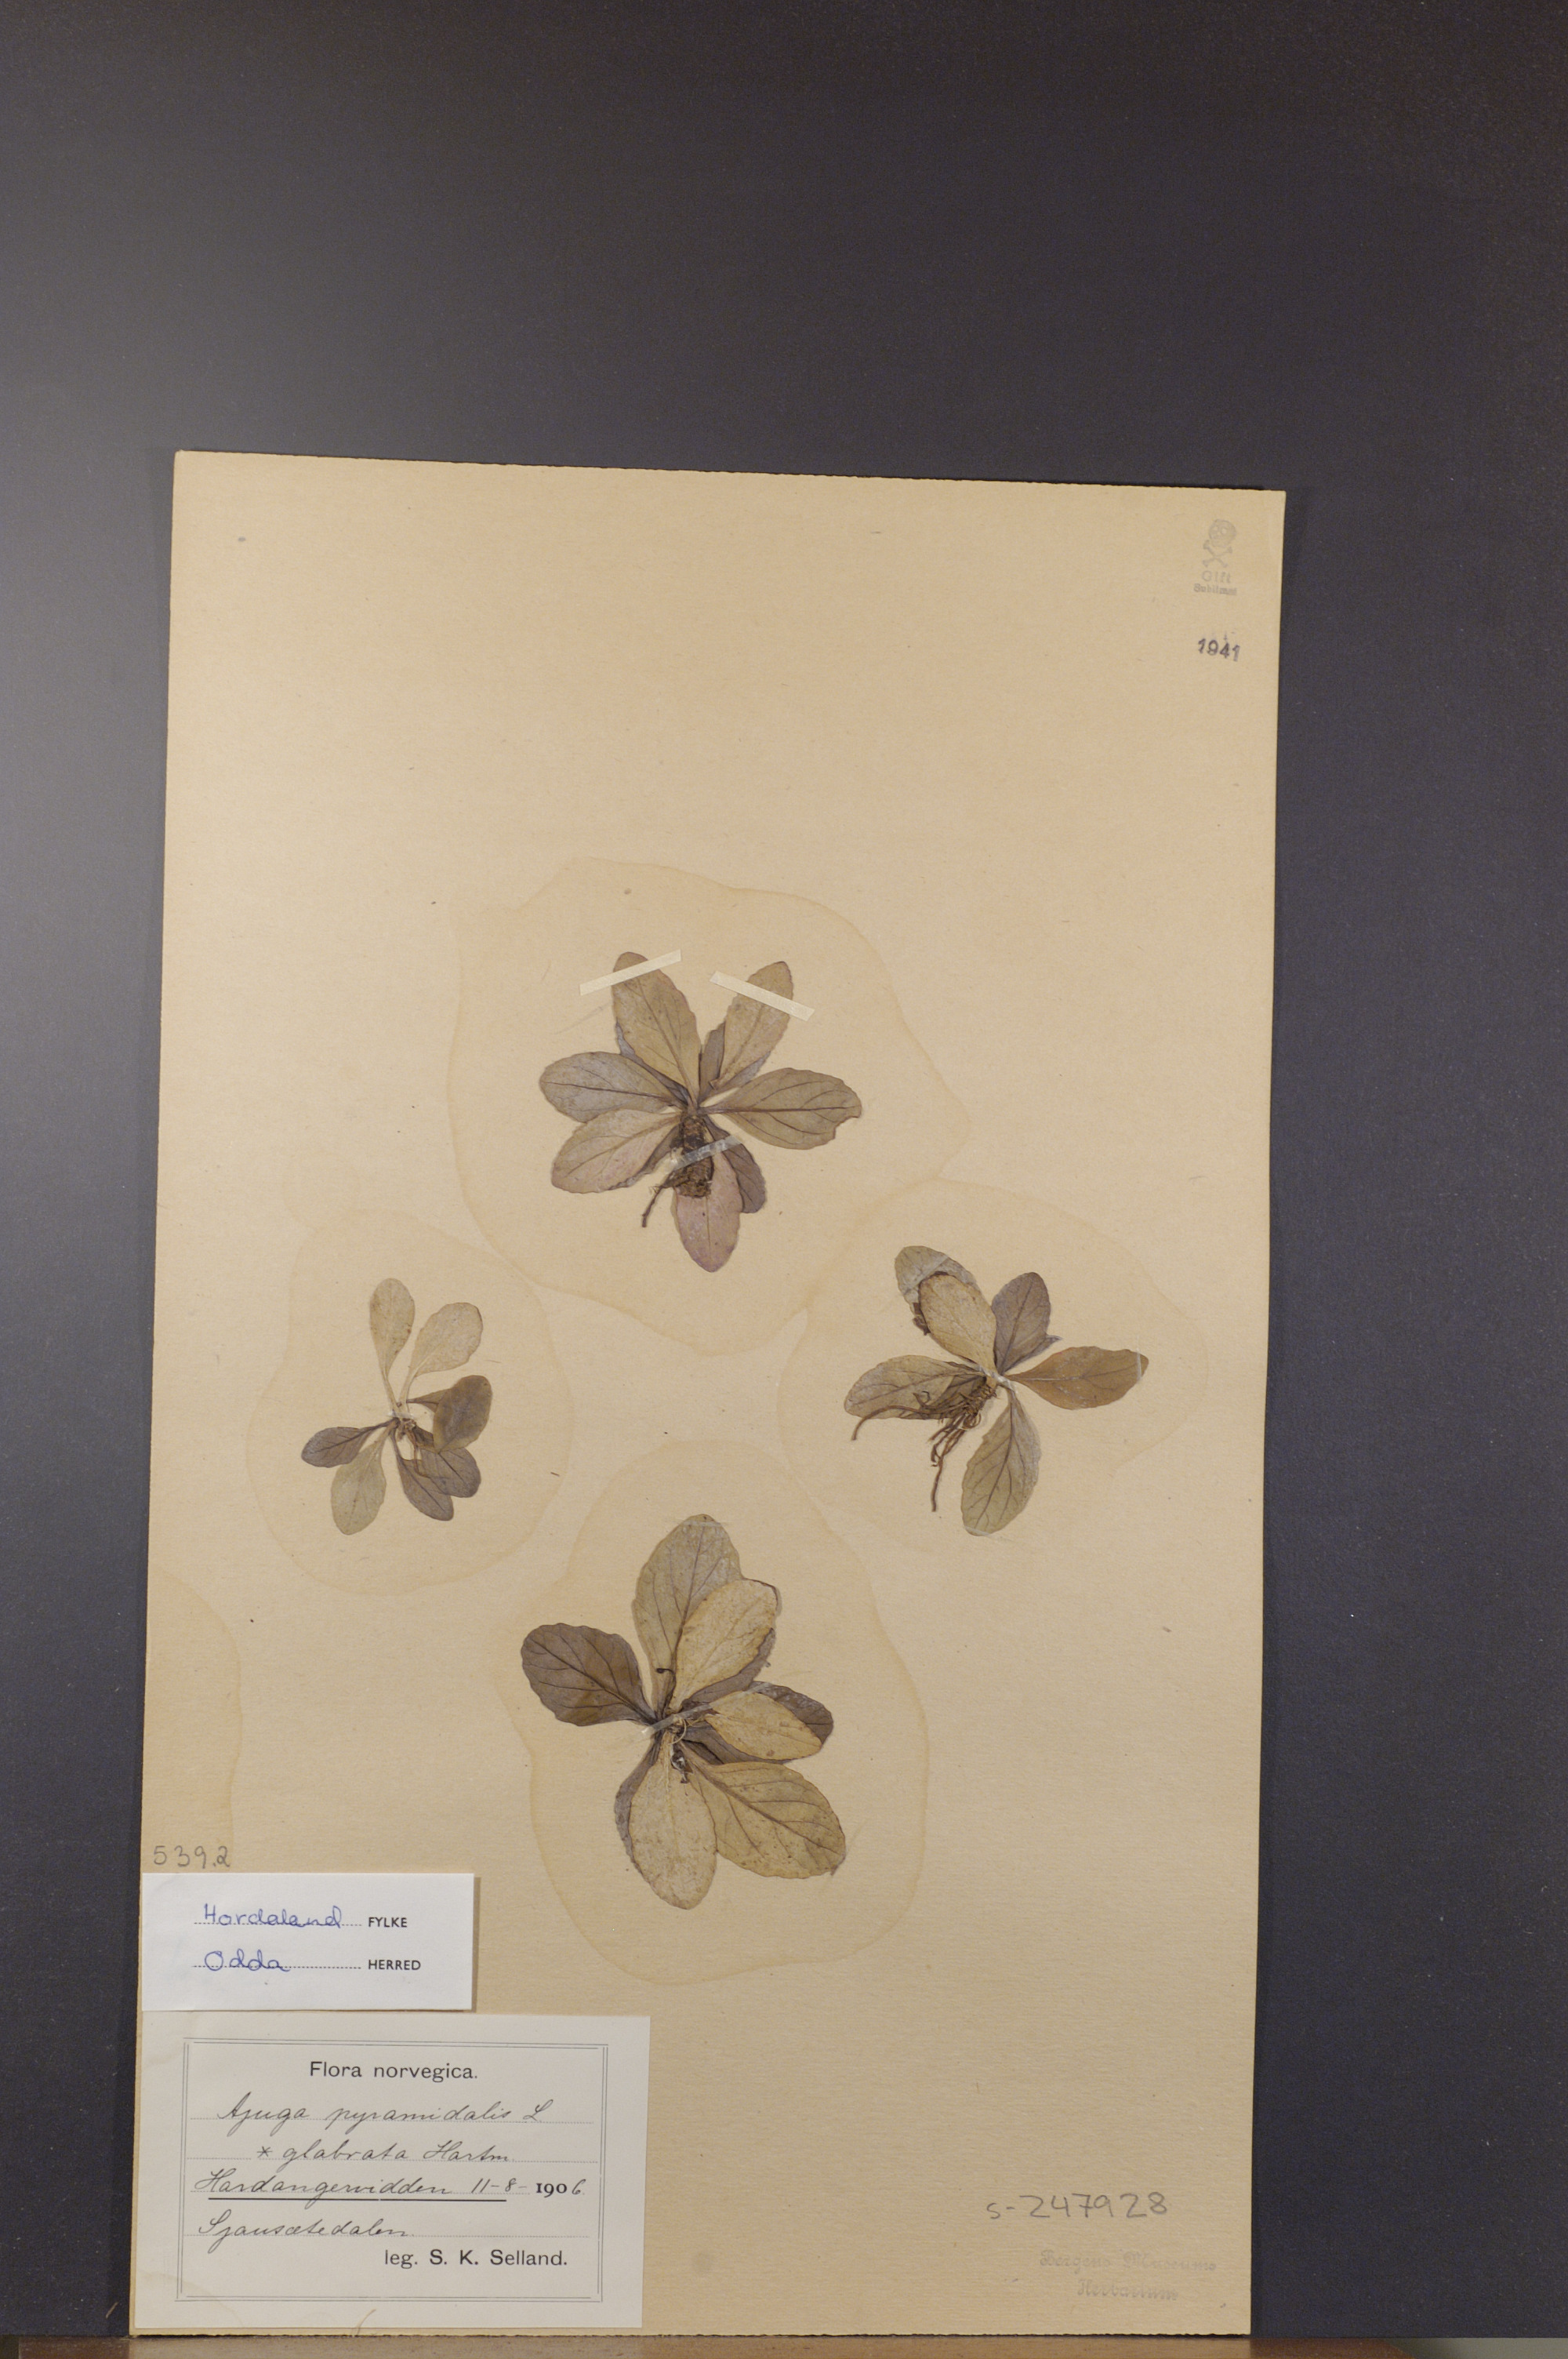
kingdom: Plantae
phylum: Tracheophyta
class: Magnoliopsida
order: Lamiales
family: Lamiaceae
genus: Ajuga
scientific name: Ajuga pyramidalis
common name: Pyramid bugle
